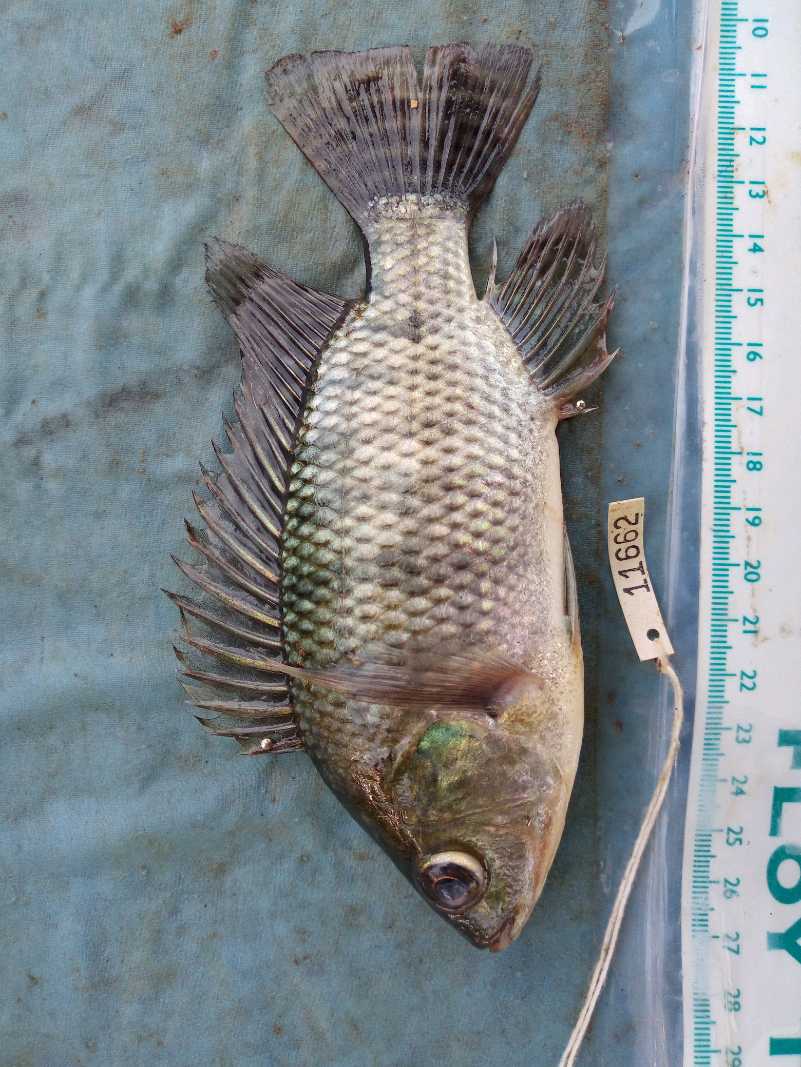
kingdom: Animalia
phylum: Chordata
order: Perciformes
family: Cichlidae
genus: Oreochromis
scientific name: Oreochromis niloticus
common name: Nile tilapia
